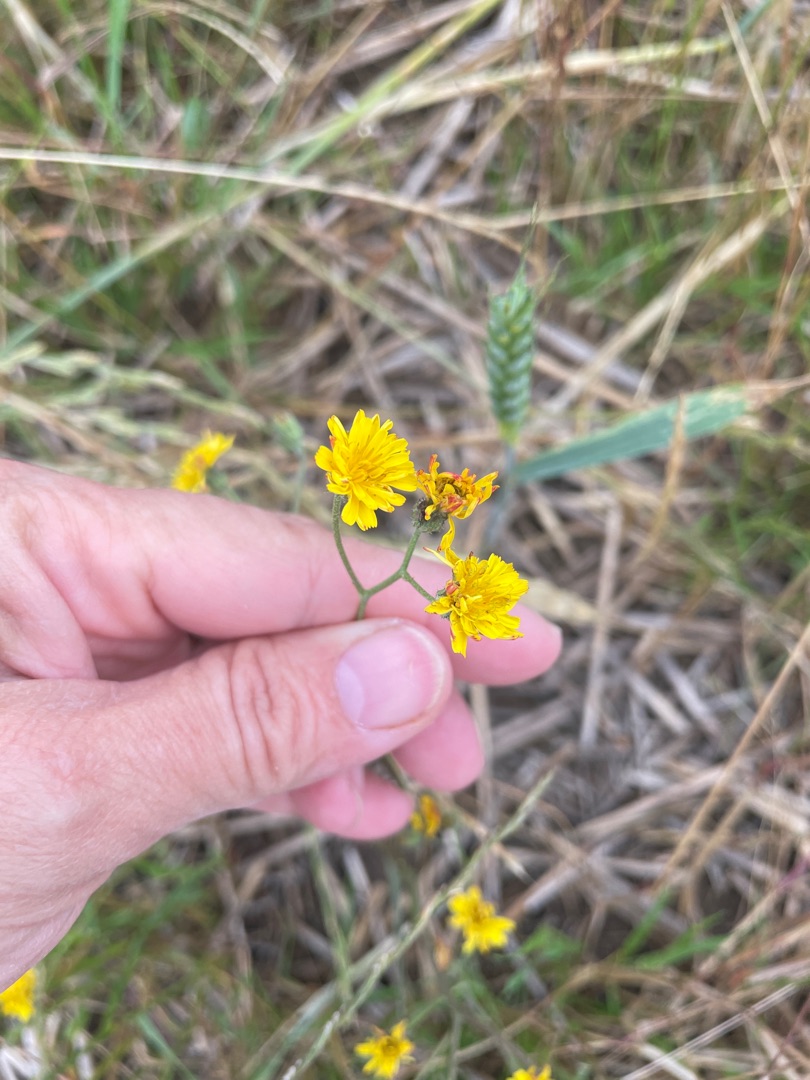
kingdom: Plantae
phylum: Tracheophyta
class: Magnoliopsida
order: Asterales
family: Asteraceae
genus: Crepis
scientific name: Crepis
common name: Høgeskægslægten
